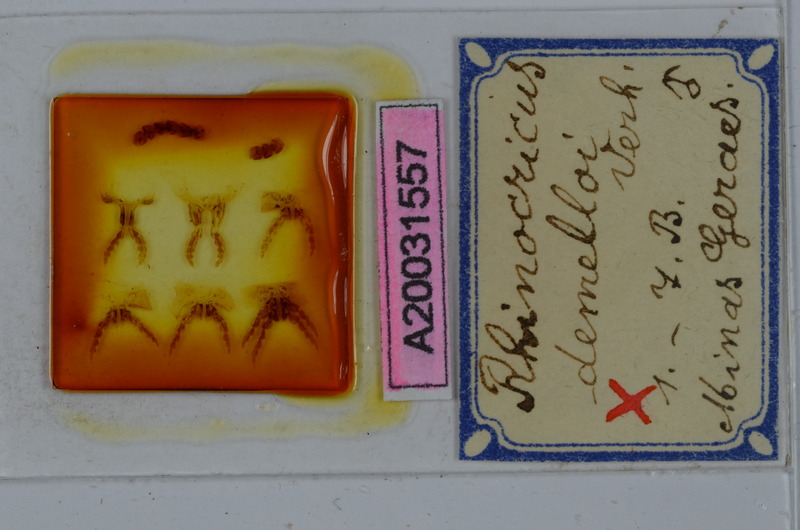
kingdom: Animalia
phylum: Arthropoda
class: Diplopoda
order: Spirobolida
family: Rhinocricidae
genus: Rhinocricus
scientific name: Rhinocricus demelloi
